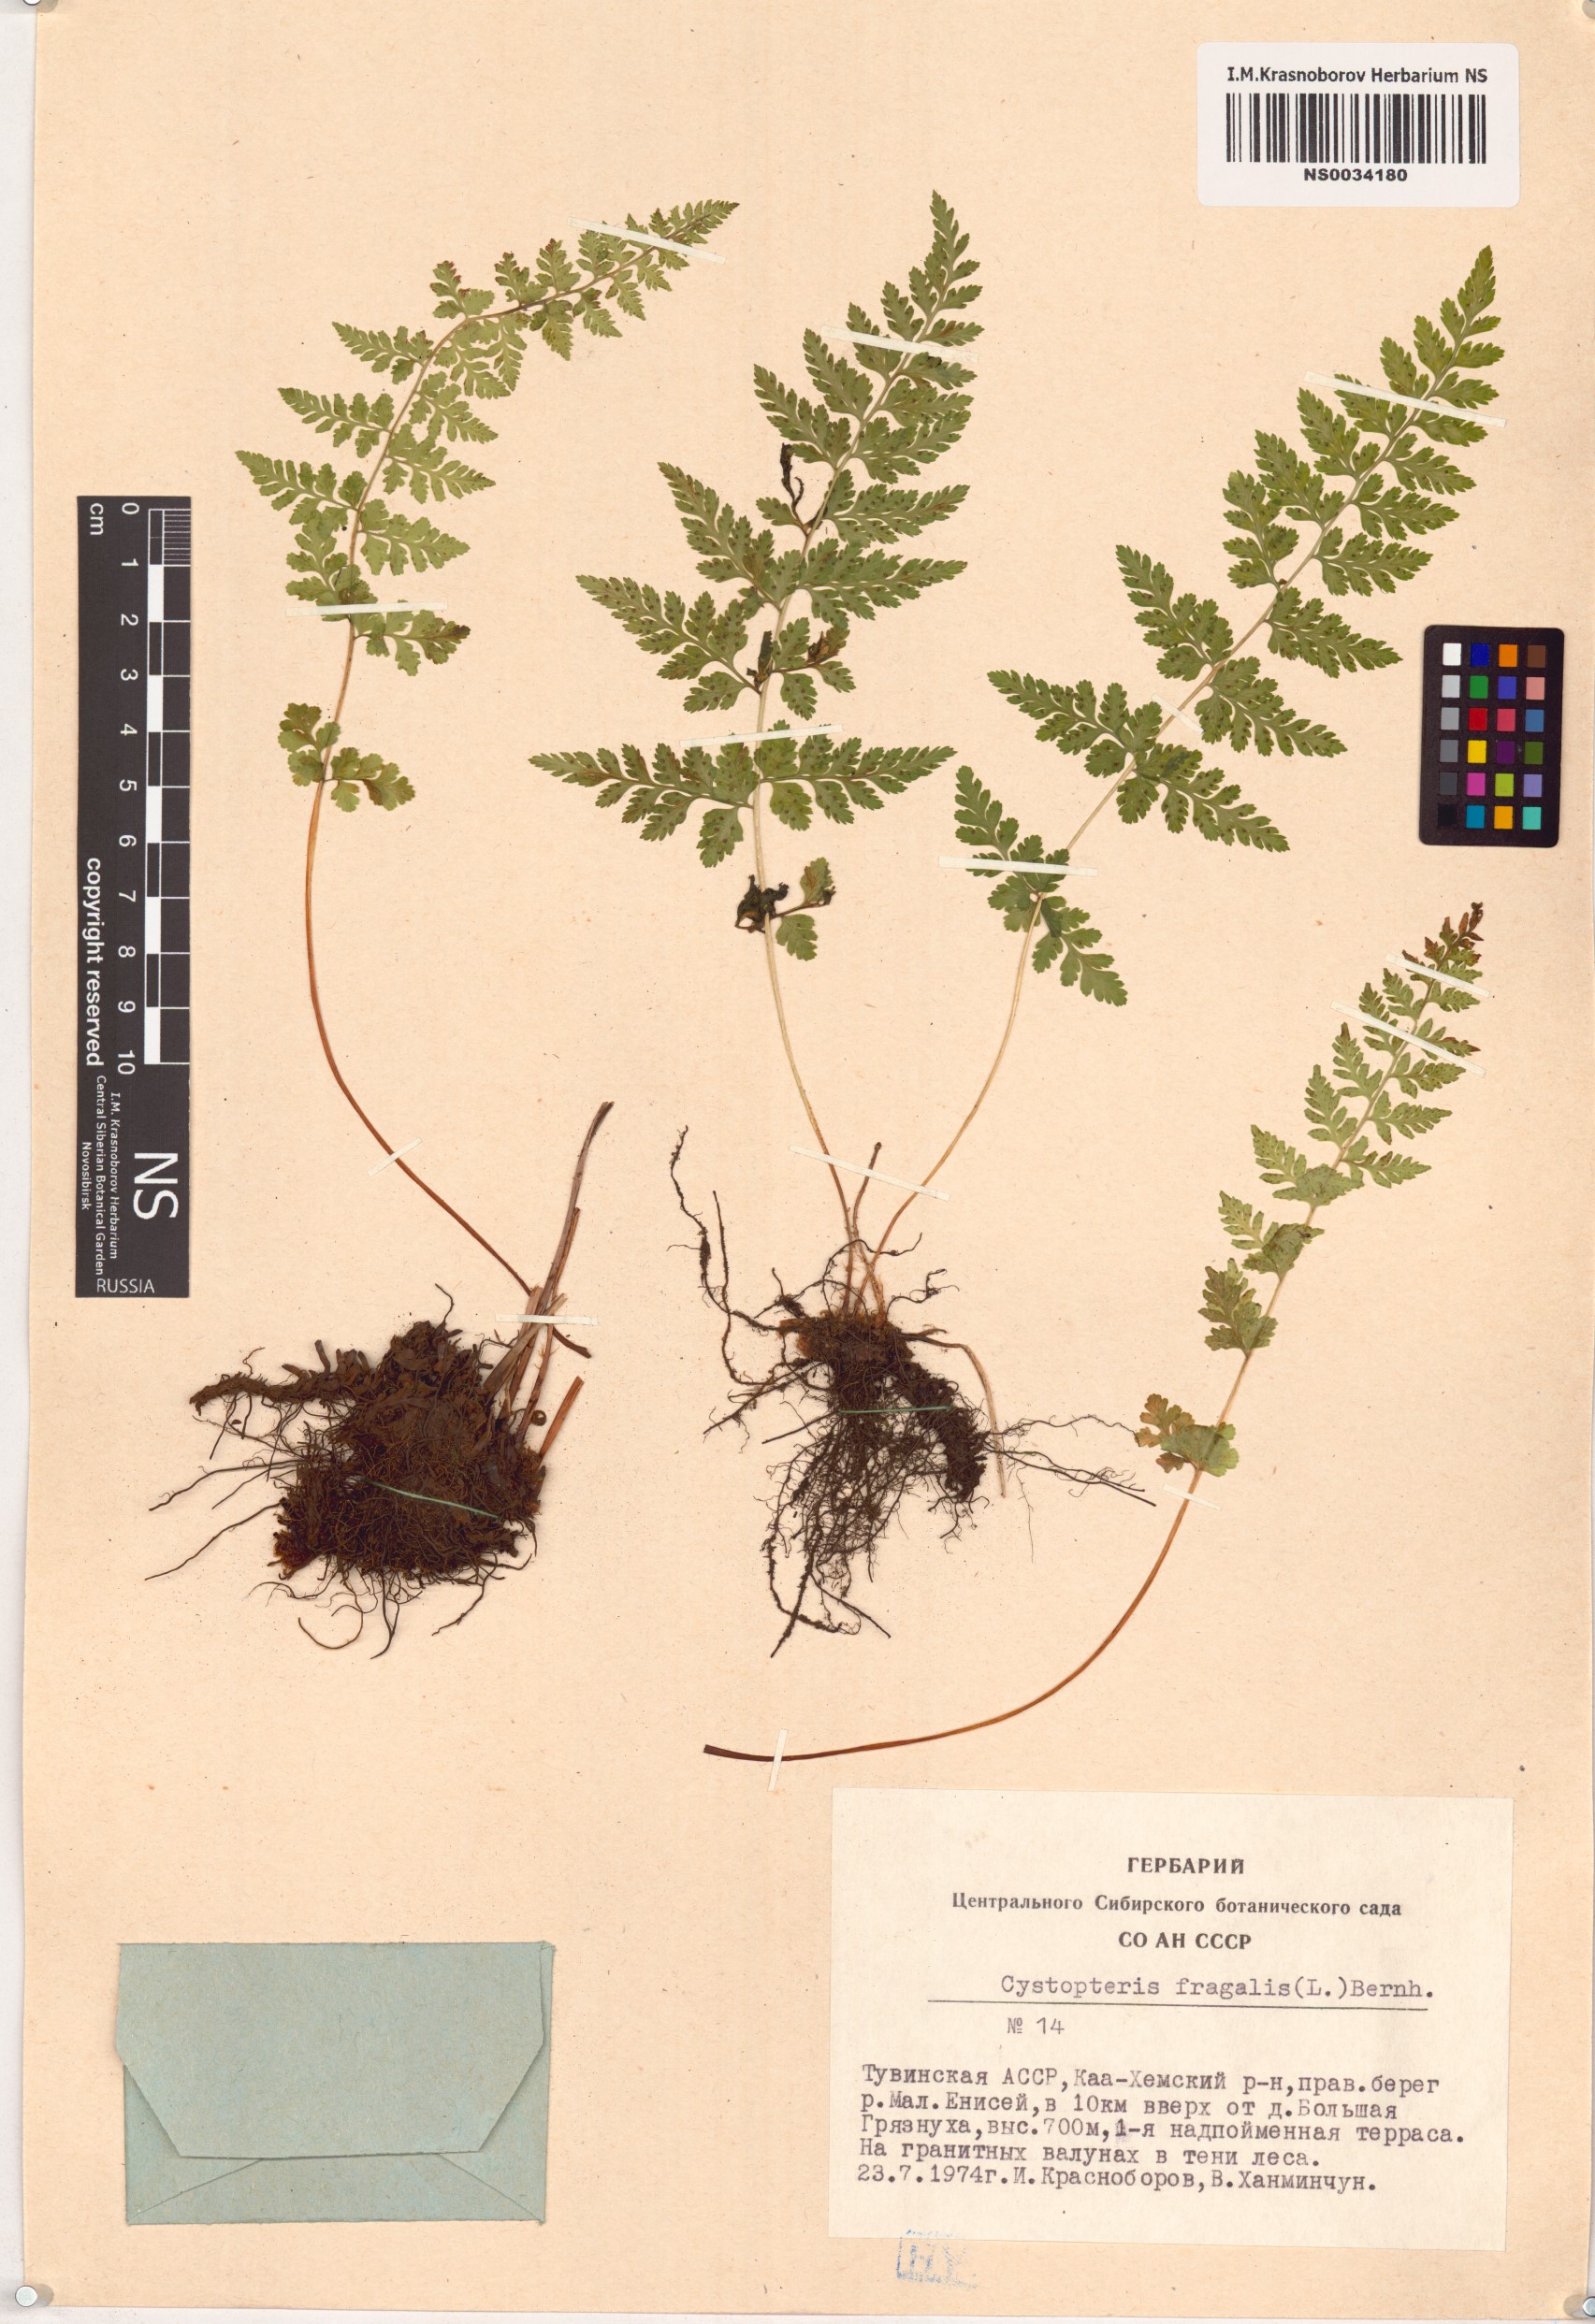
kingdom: Plantae
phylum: Tracheophyta
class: Polypodiopsida
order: Polypodiales
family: Cystopteridaceae
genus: Cystopteris
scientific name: Cystopteris fragilis
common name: Brittle bladder fern
